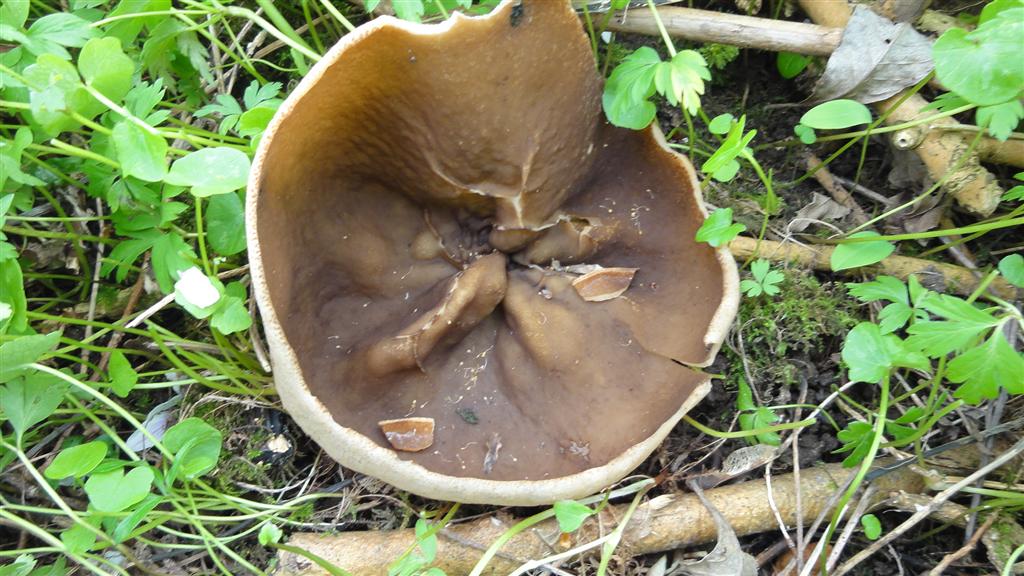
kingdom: Fungi
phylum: Ascomycota
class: Pezizomycetes
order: Pezizales
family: Morchellaceae
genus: Disciotis
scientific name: Disciotis venosa
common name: klor-bægermorkel
